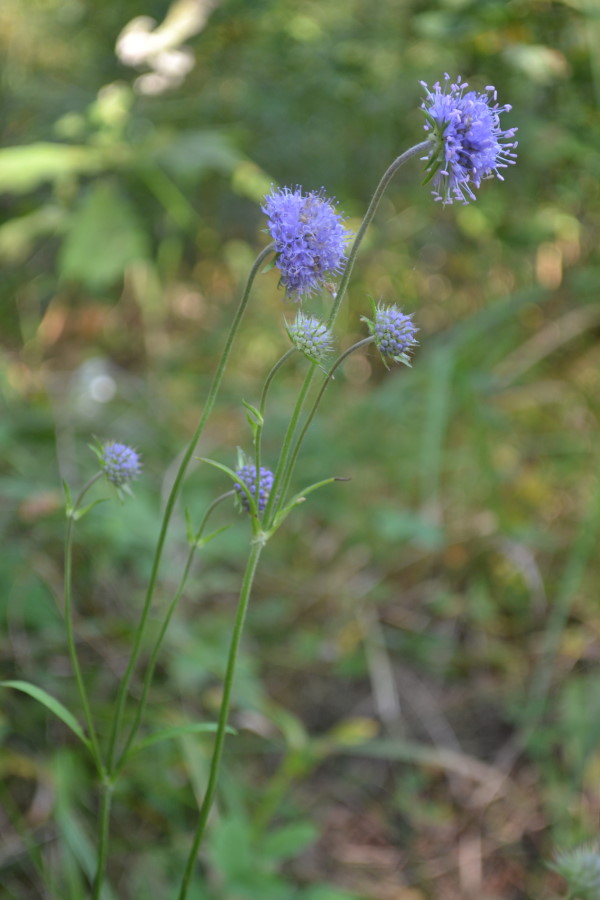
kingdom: Plantae
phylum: Tracheophyta
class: Magnoliopsida
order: Dipsacales
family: Caprifoliaceae
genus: Succisa
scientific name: Succisa pratensis
